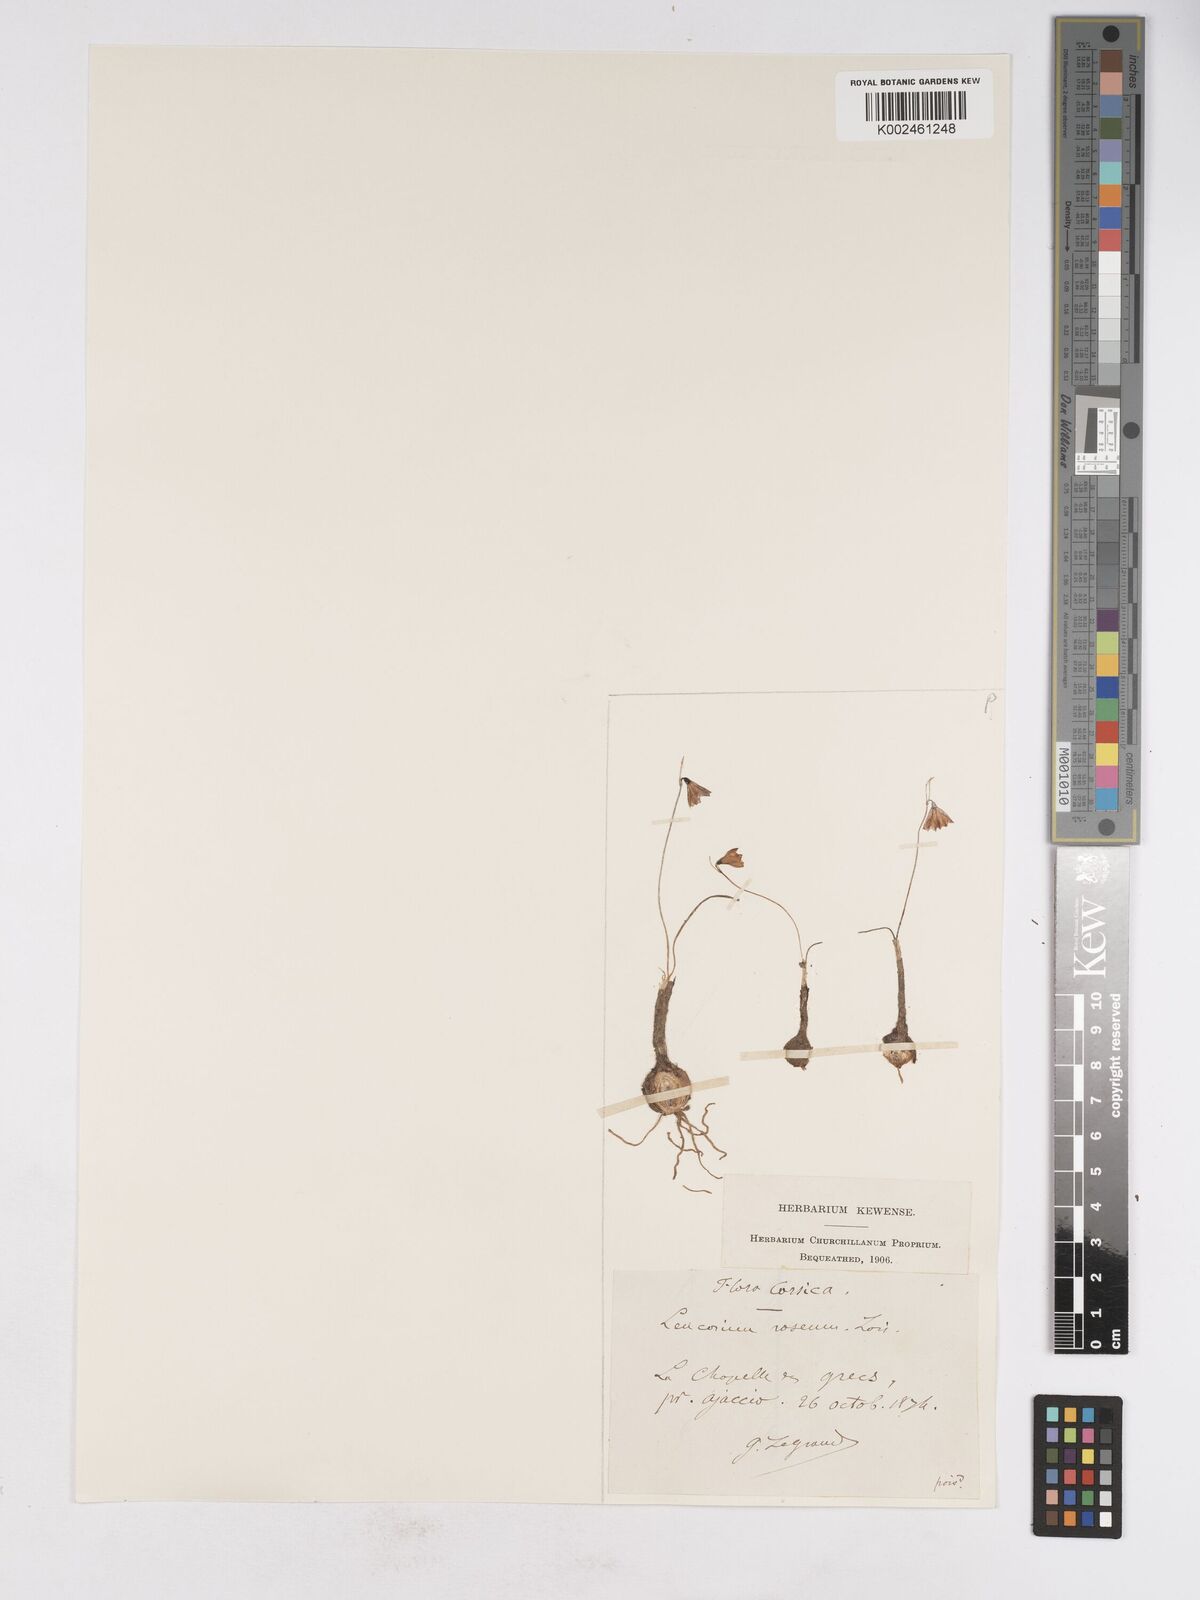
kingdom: Plantae
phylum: Tracheophyta
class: Liliopsida
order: Asparagales
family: Amaryllidaceae
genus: Acis
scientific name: Acis rosea
